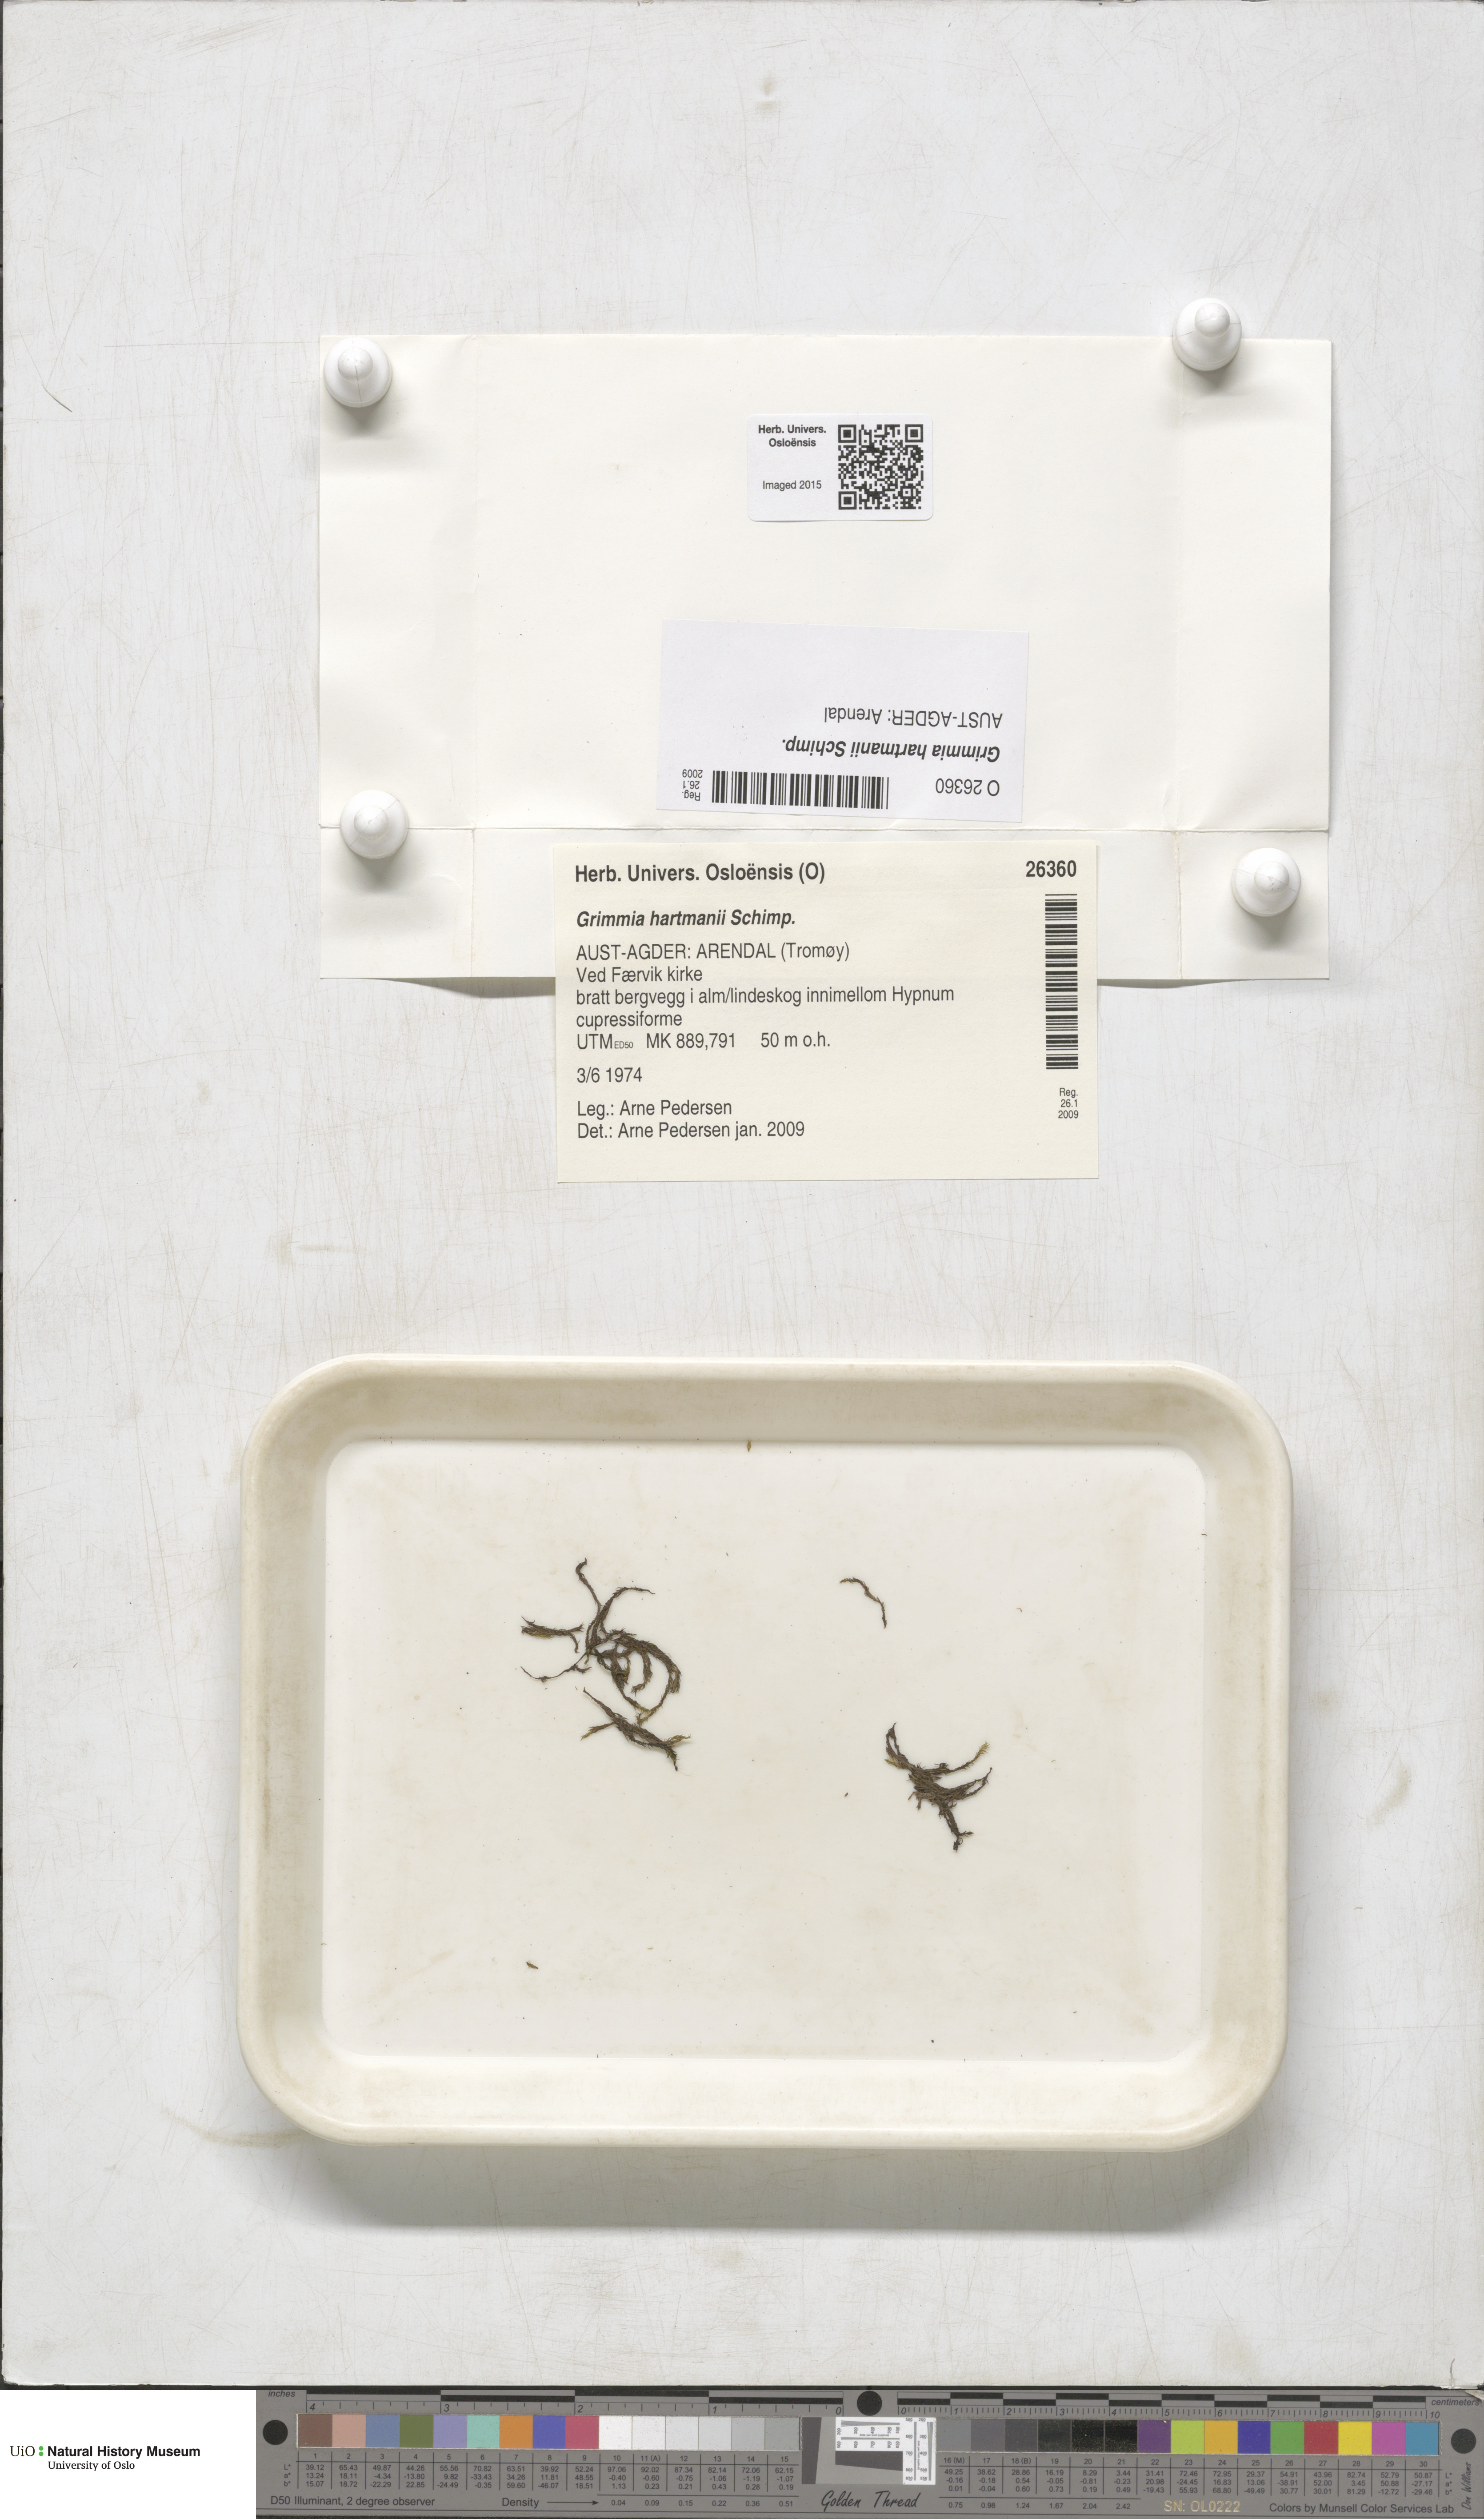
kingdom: Plantae
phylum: Bryophyta
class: Bryopsida
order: Grimmiales
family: Grimmiaceae
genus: Grimmia
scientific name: Grimmia hartmanii
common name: Hartman's grimmia
